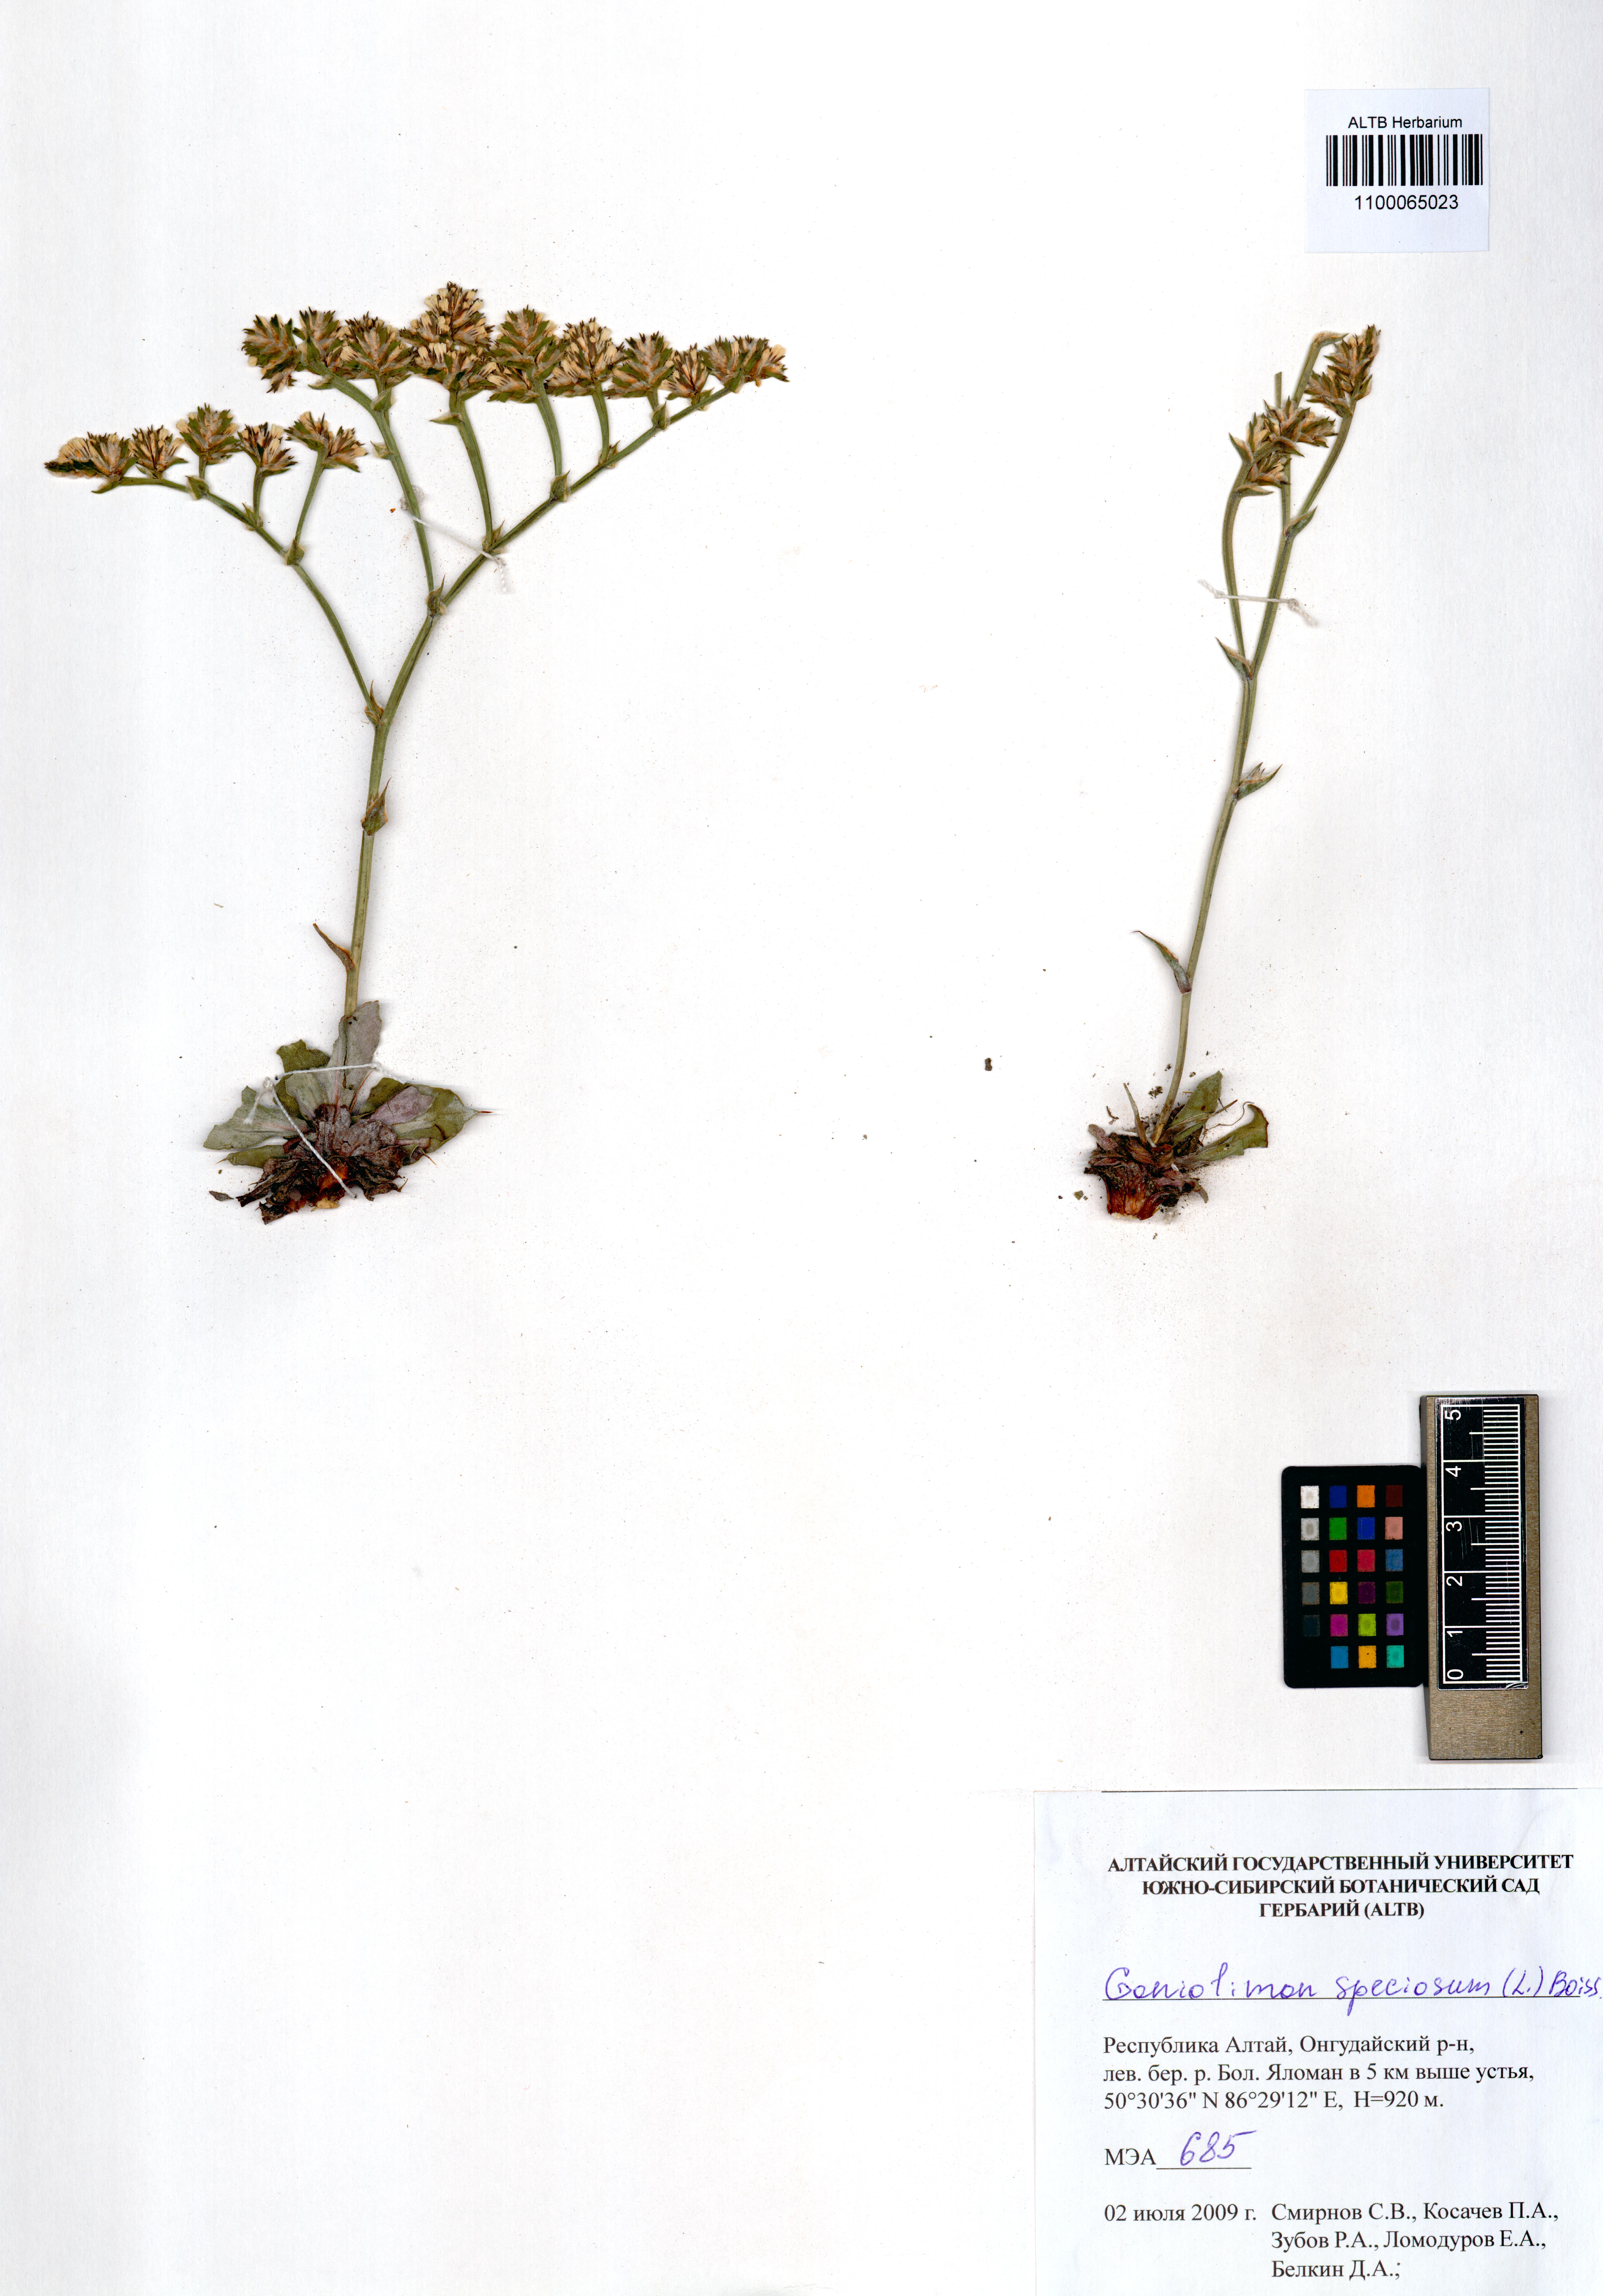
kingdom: Plantae
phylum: Tracheophyta
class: Magnoliopsida
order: Caryophyllales
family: Plumbaginaceae
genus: Goniolimon
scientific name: Goniolimon speciosum
